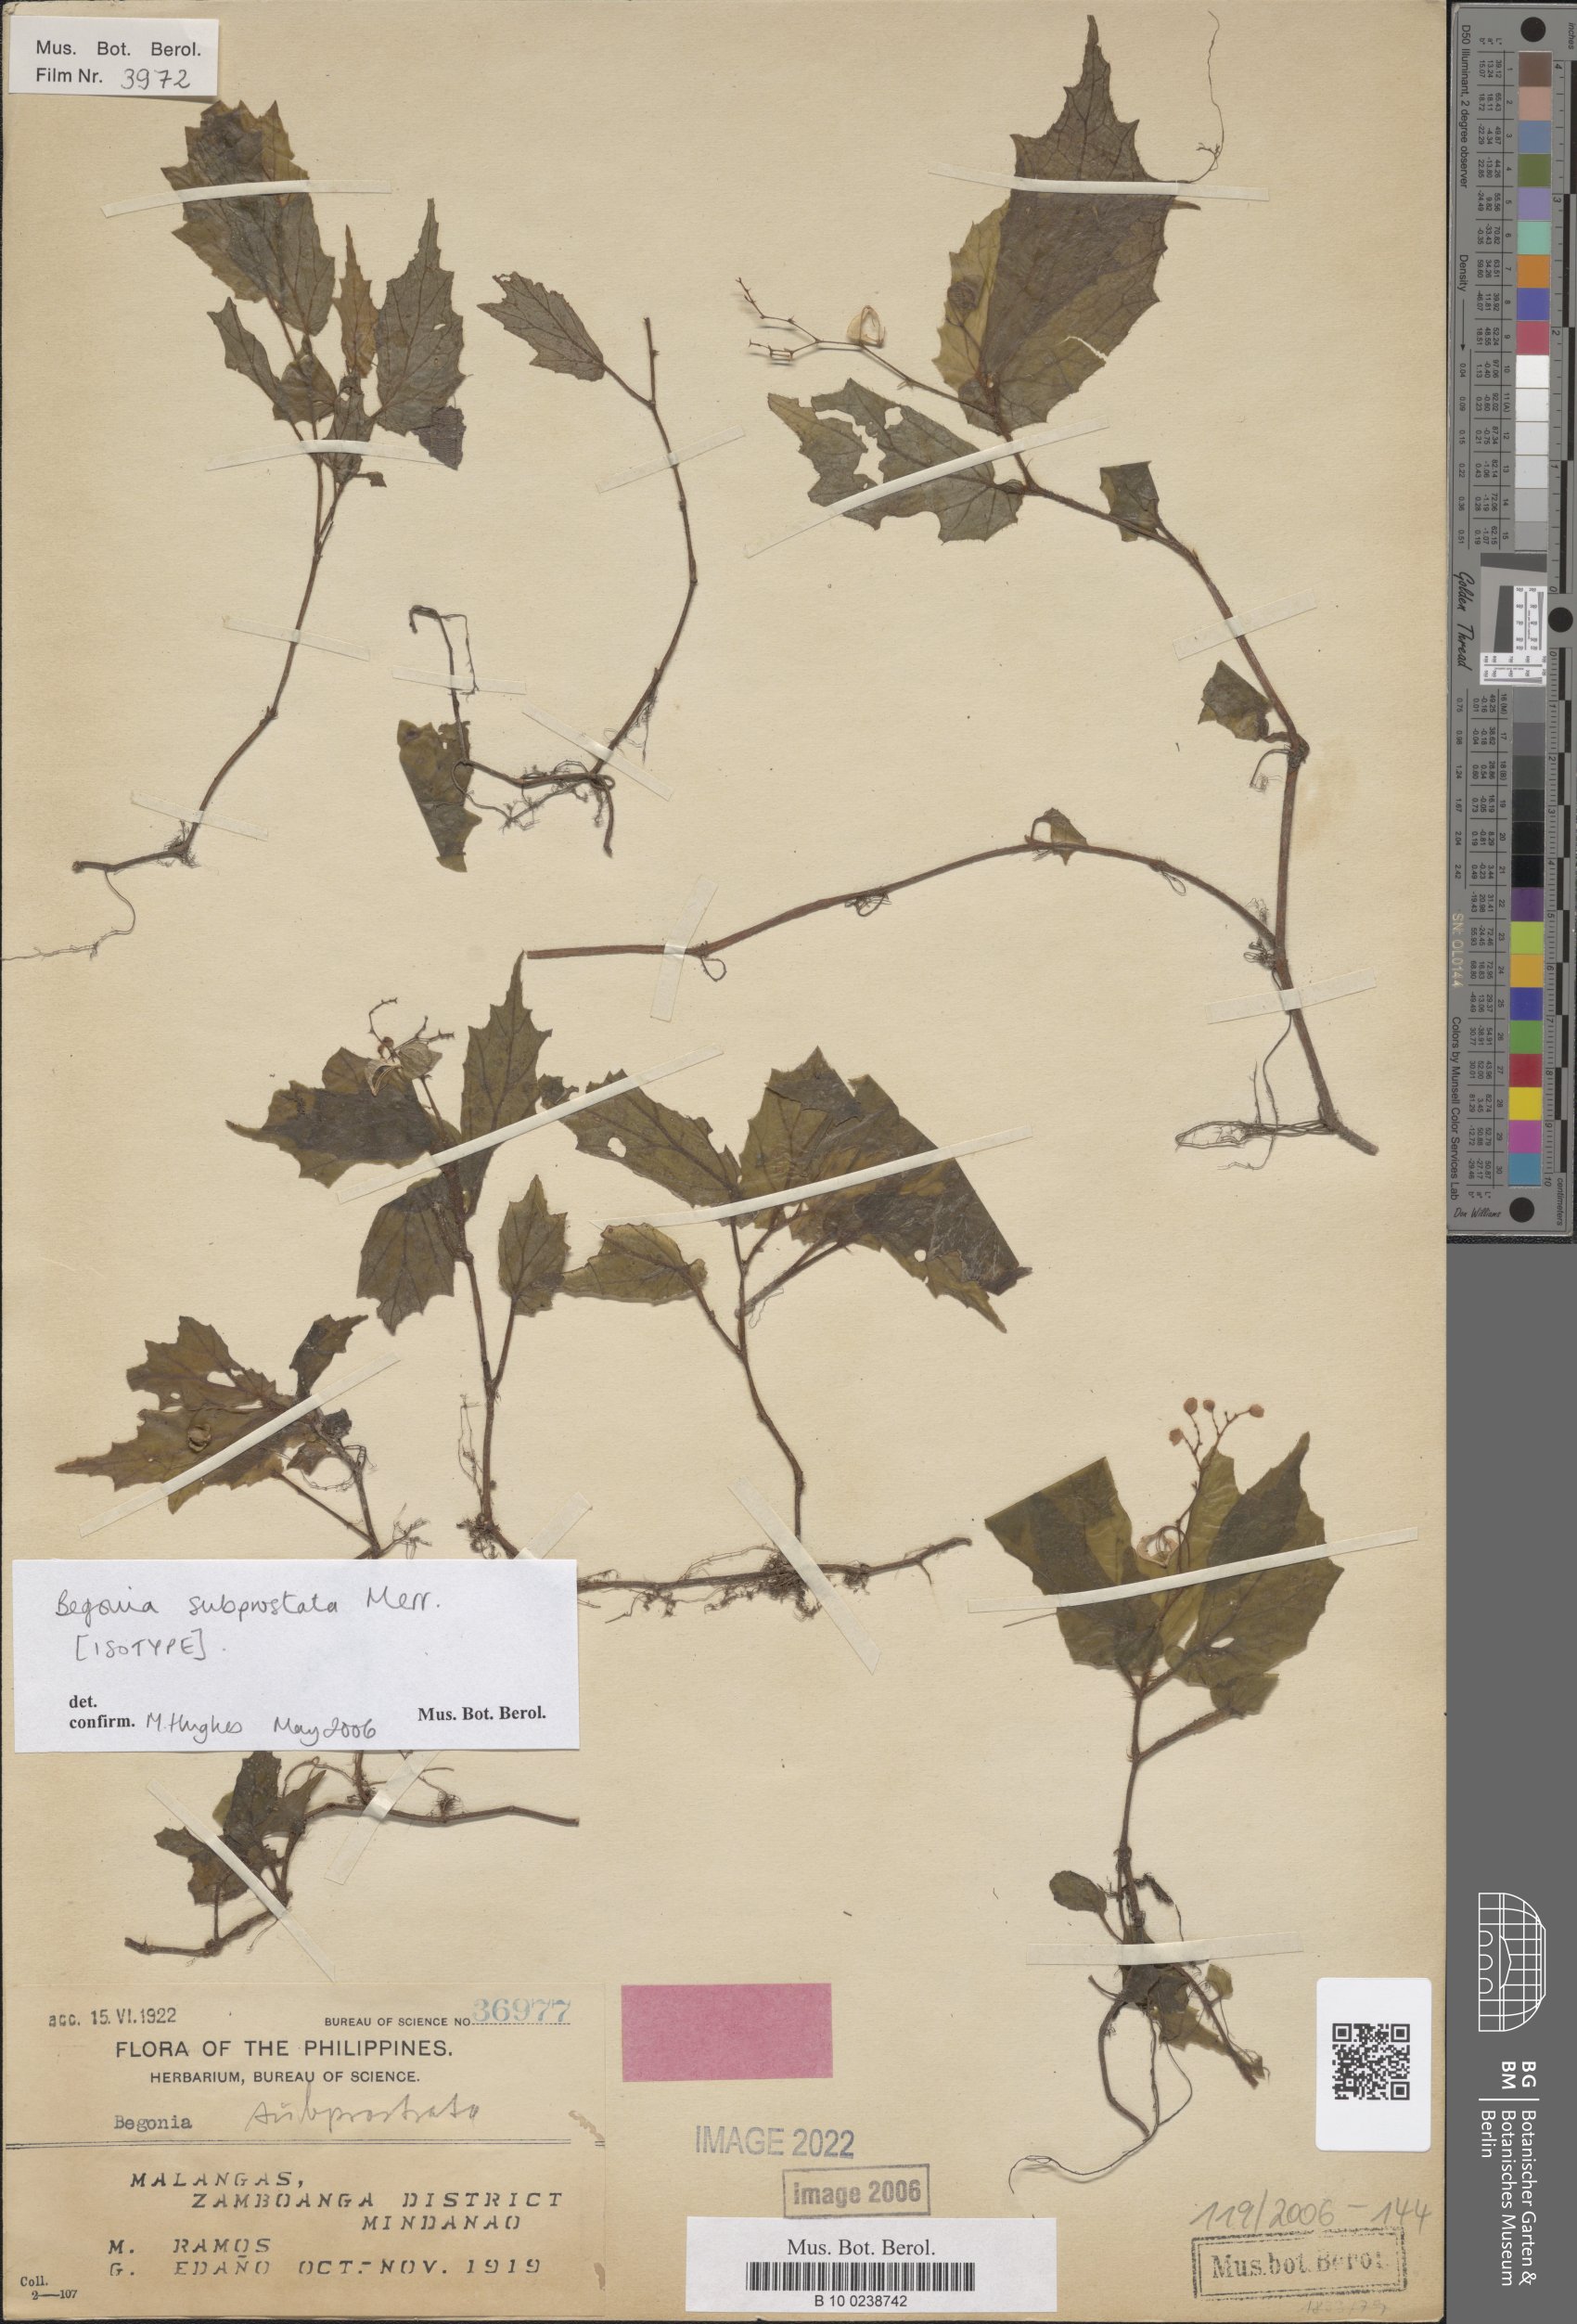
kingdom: Plantae
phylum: Tracheophyta
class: Magnoliopsida
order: Cucurbitales
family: Begoniaceae
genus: Begonia
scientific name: Begonia subprostrata
